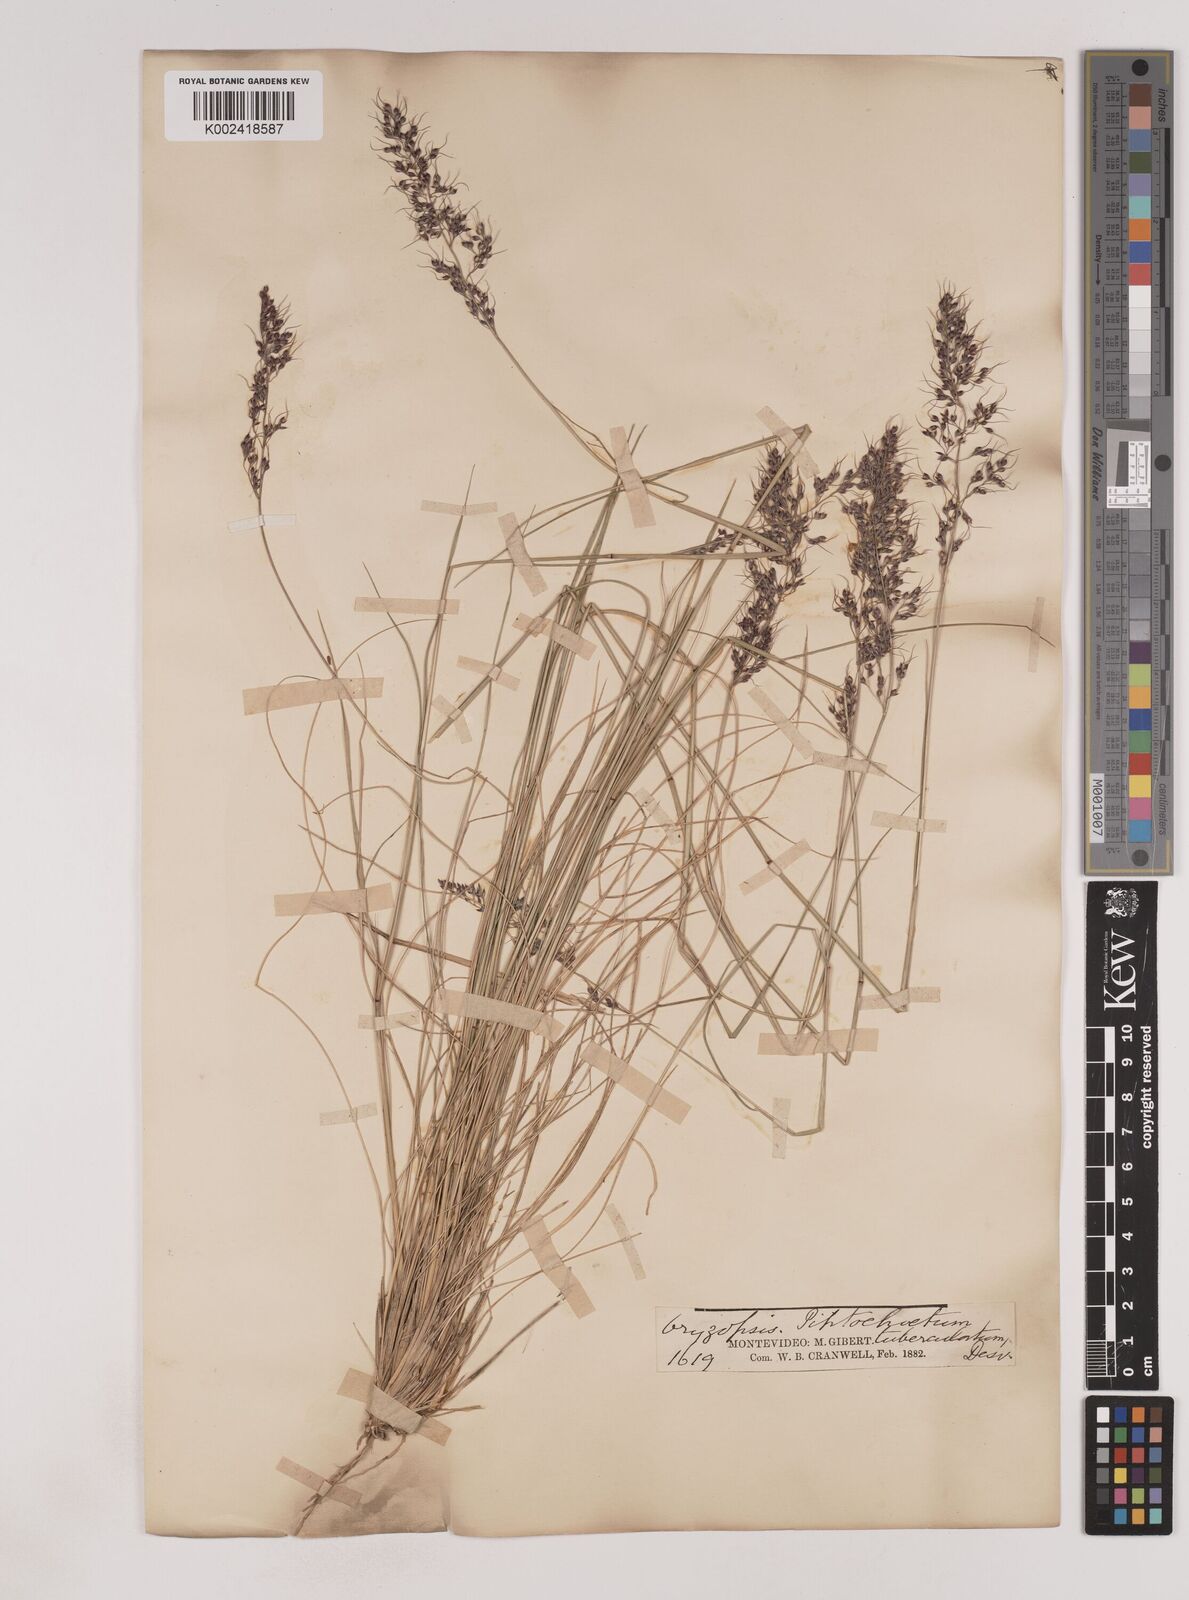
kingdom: Plantae
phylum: Tracheophyta
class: Liliopsida
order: Poales
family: Poaceae
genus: Piptochaetium
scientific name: Piptochaetium montevidense
